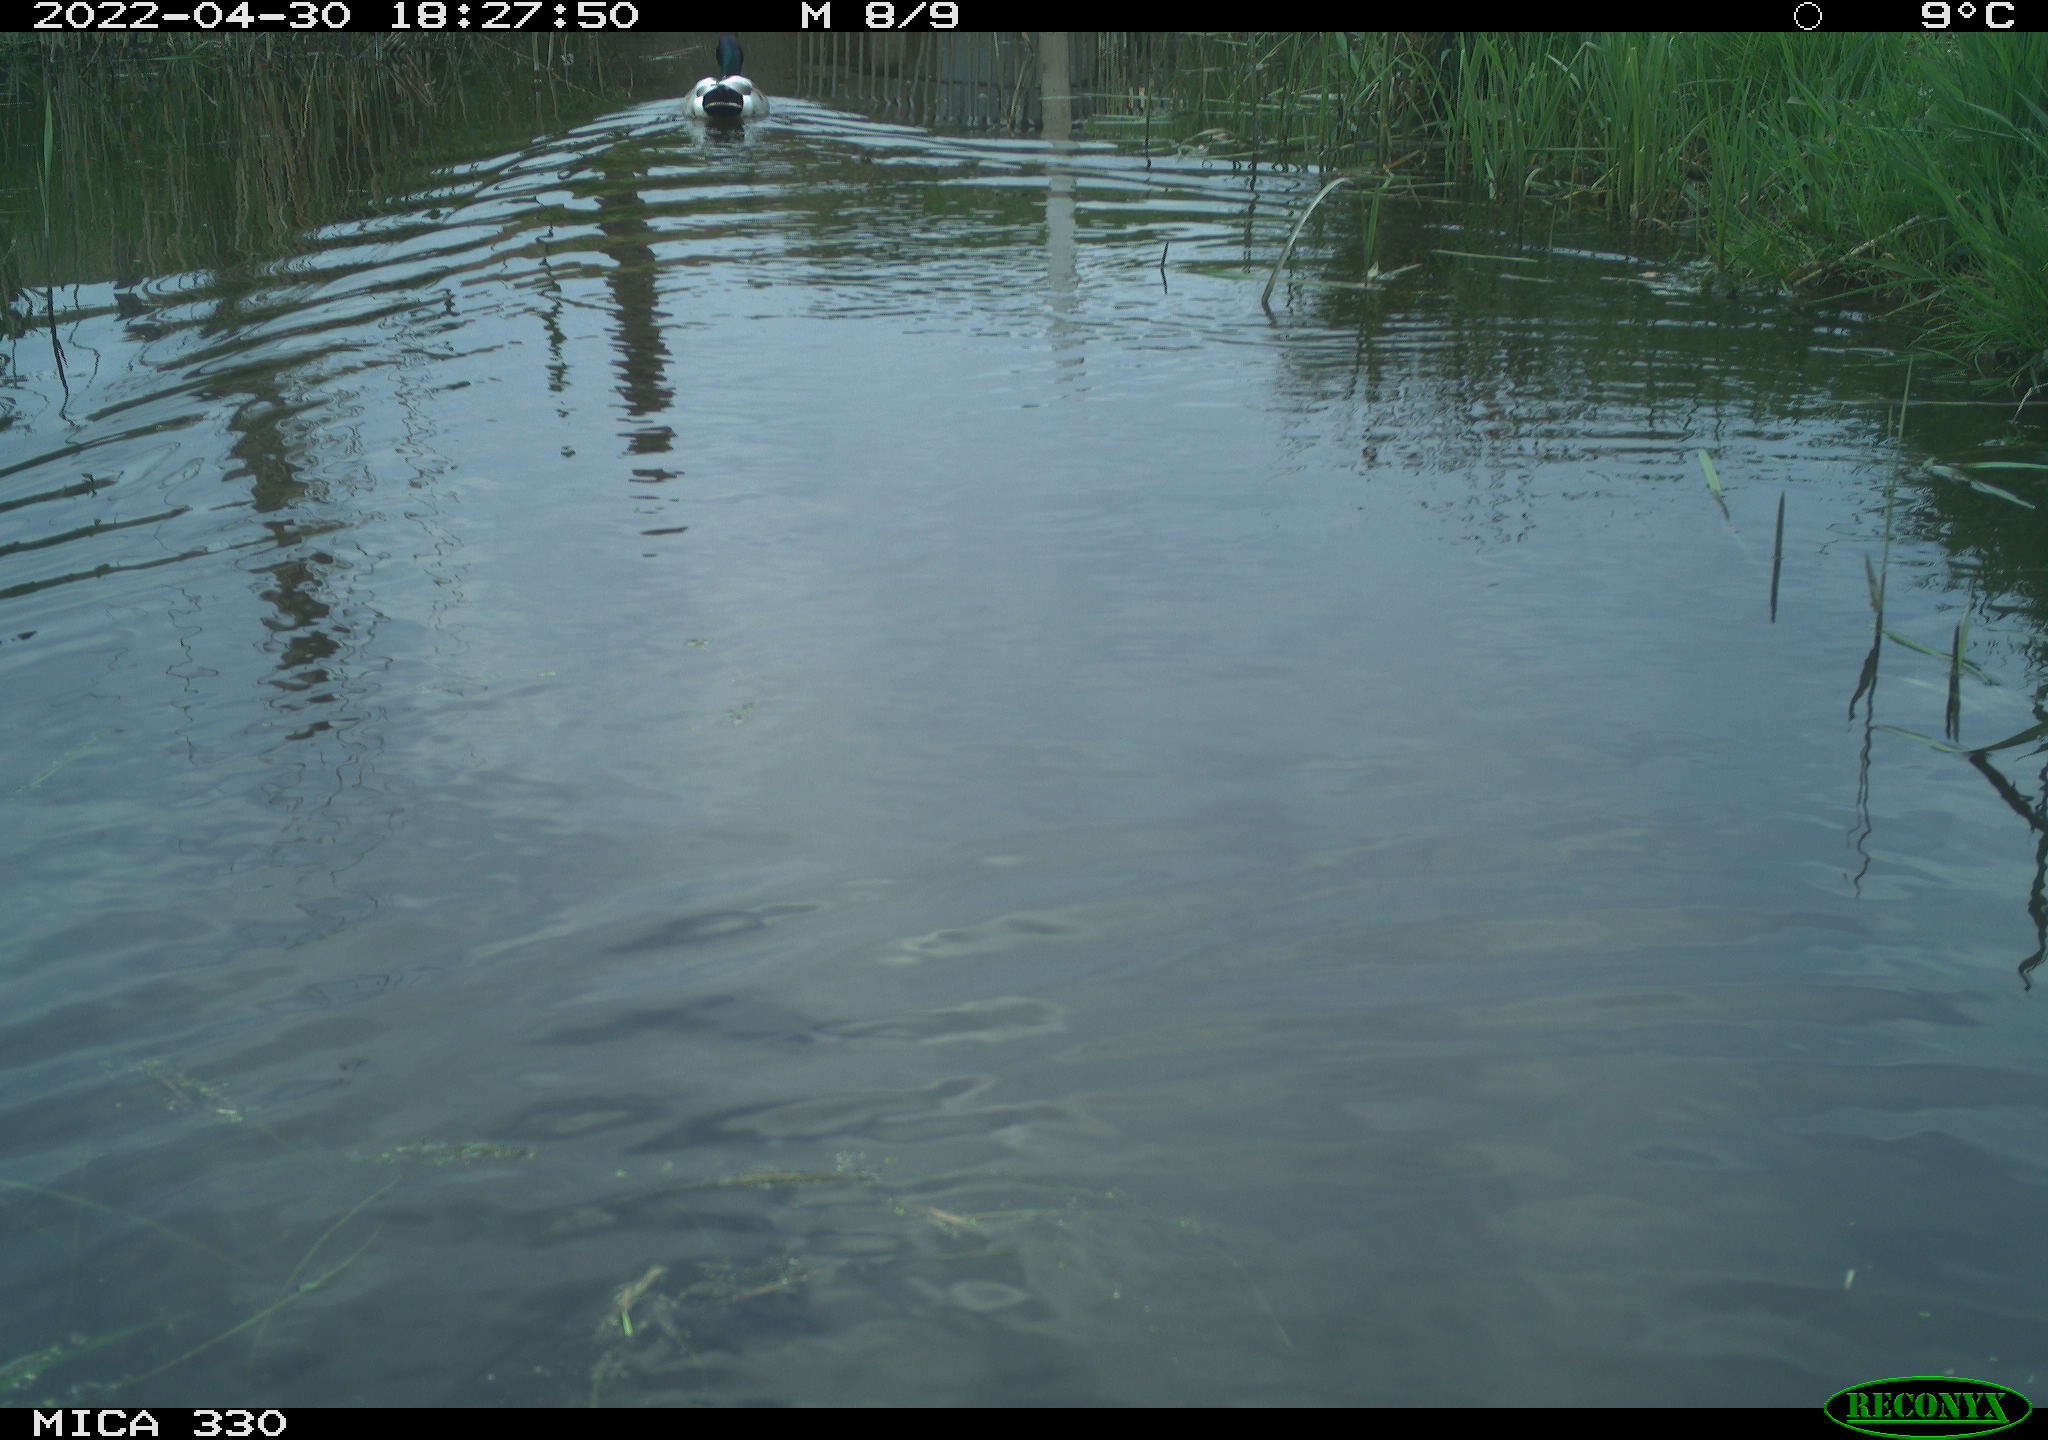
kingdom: Animalia
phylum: Chordata
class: Aves
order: Anseriformes
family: Anatidae
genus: Anas
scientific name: Anas platyrhynchos
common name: Mallard
